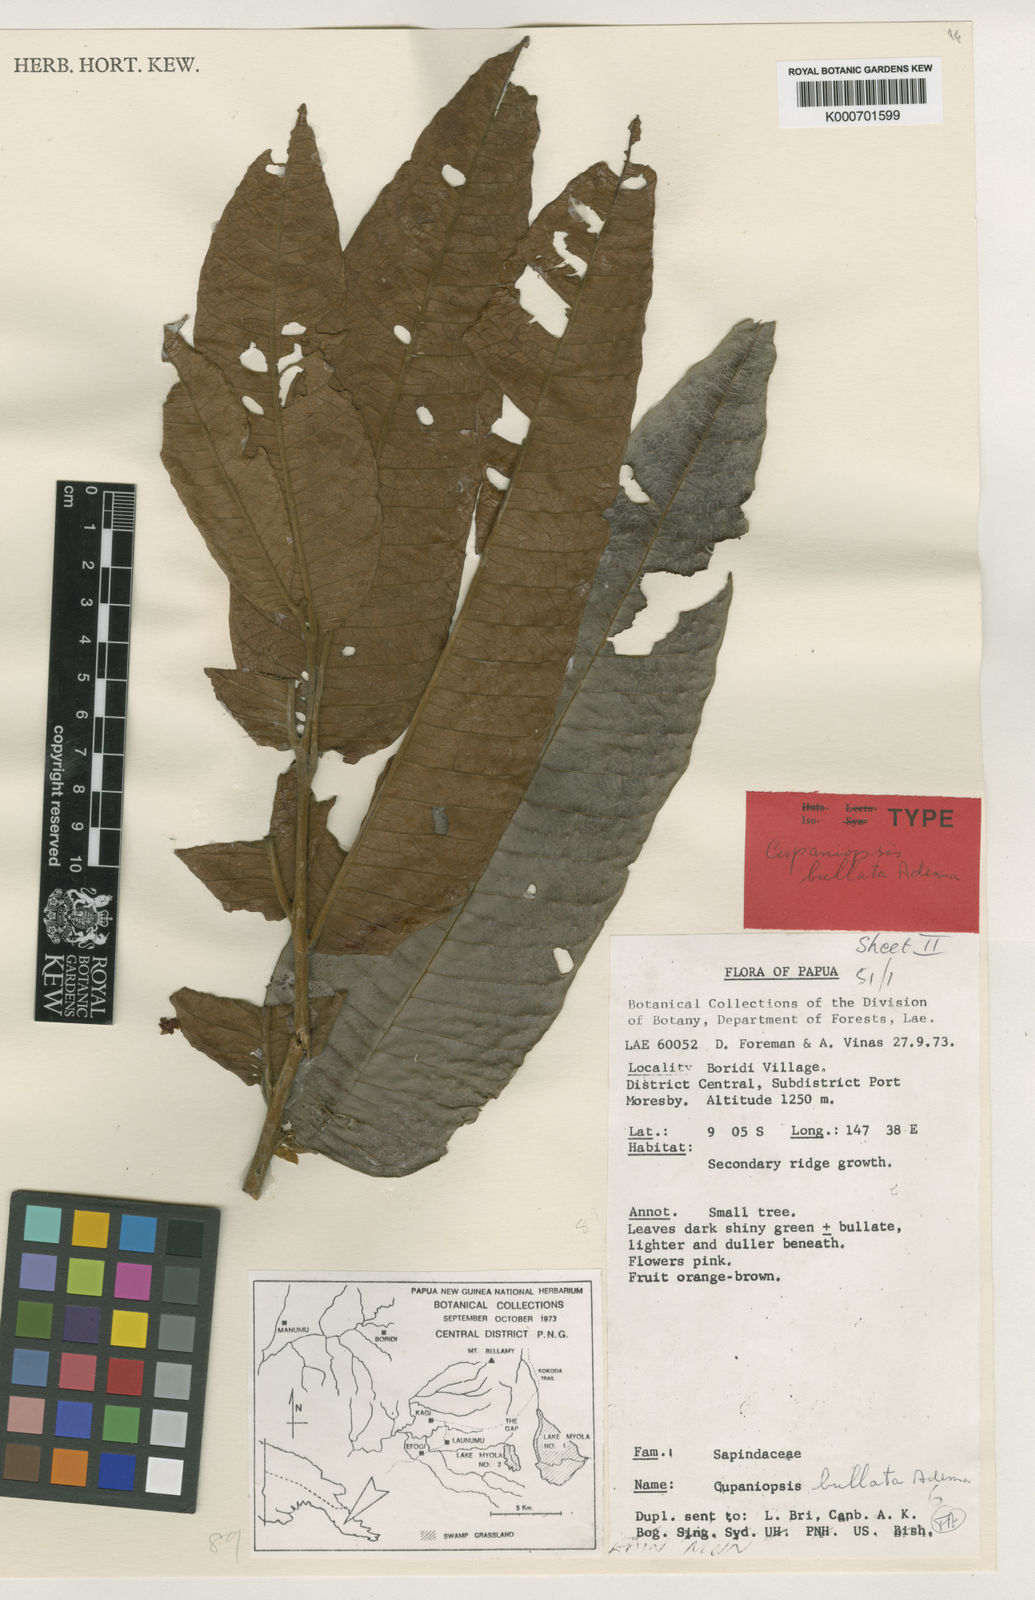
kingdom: Plantae
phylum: Tracheophyta
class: Magnoliopsida
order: Sapindales
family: Sapindaceae
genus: Cupaniopsis
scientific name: Cupaniopsis bullata
